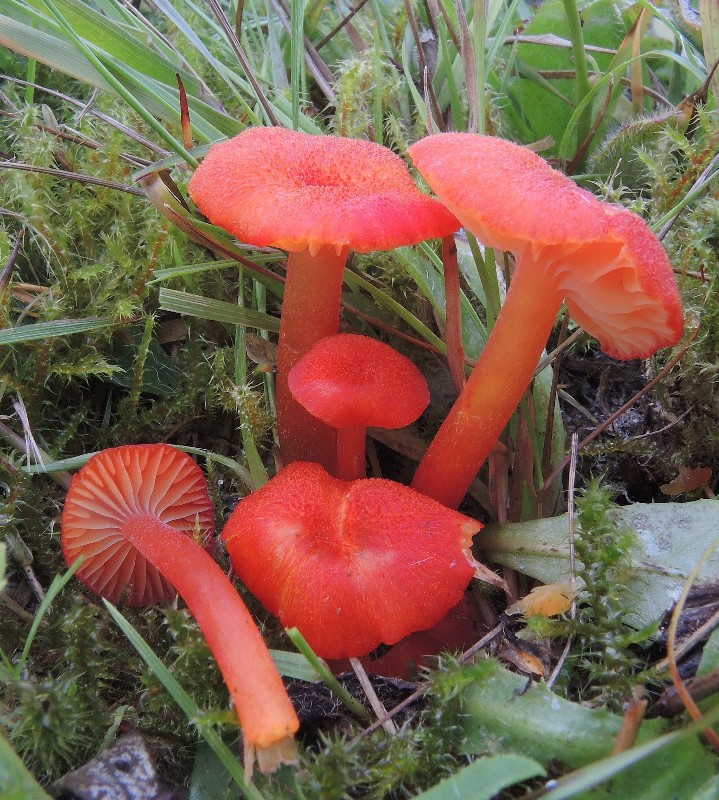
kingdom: Fungi
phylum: Basidiomycota
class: Agaricomycetes
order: Agaricales
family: Hygrophoraceae
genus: Hygrocybe
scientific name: Hygrocybe helobia
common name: hvidløgs-vokshat
